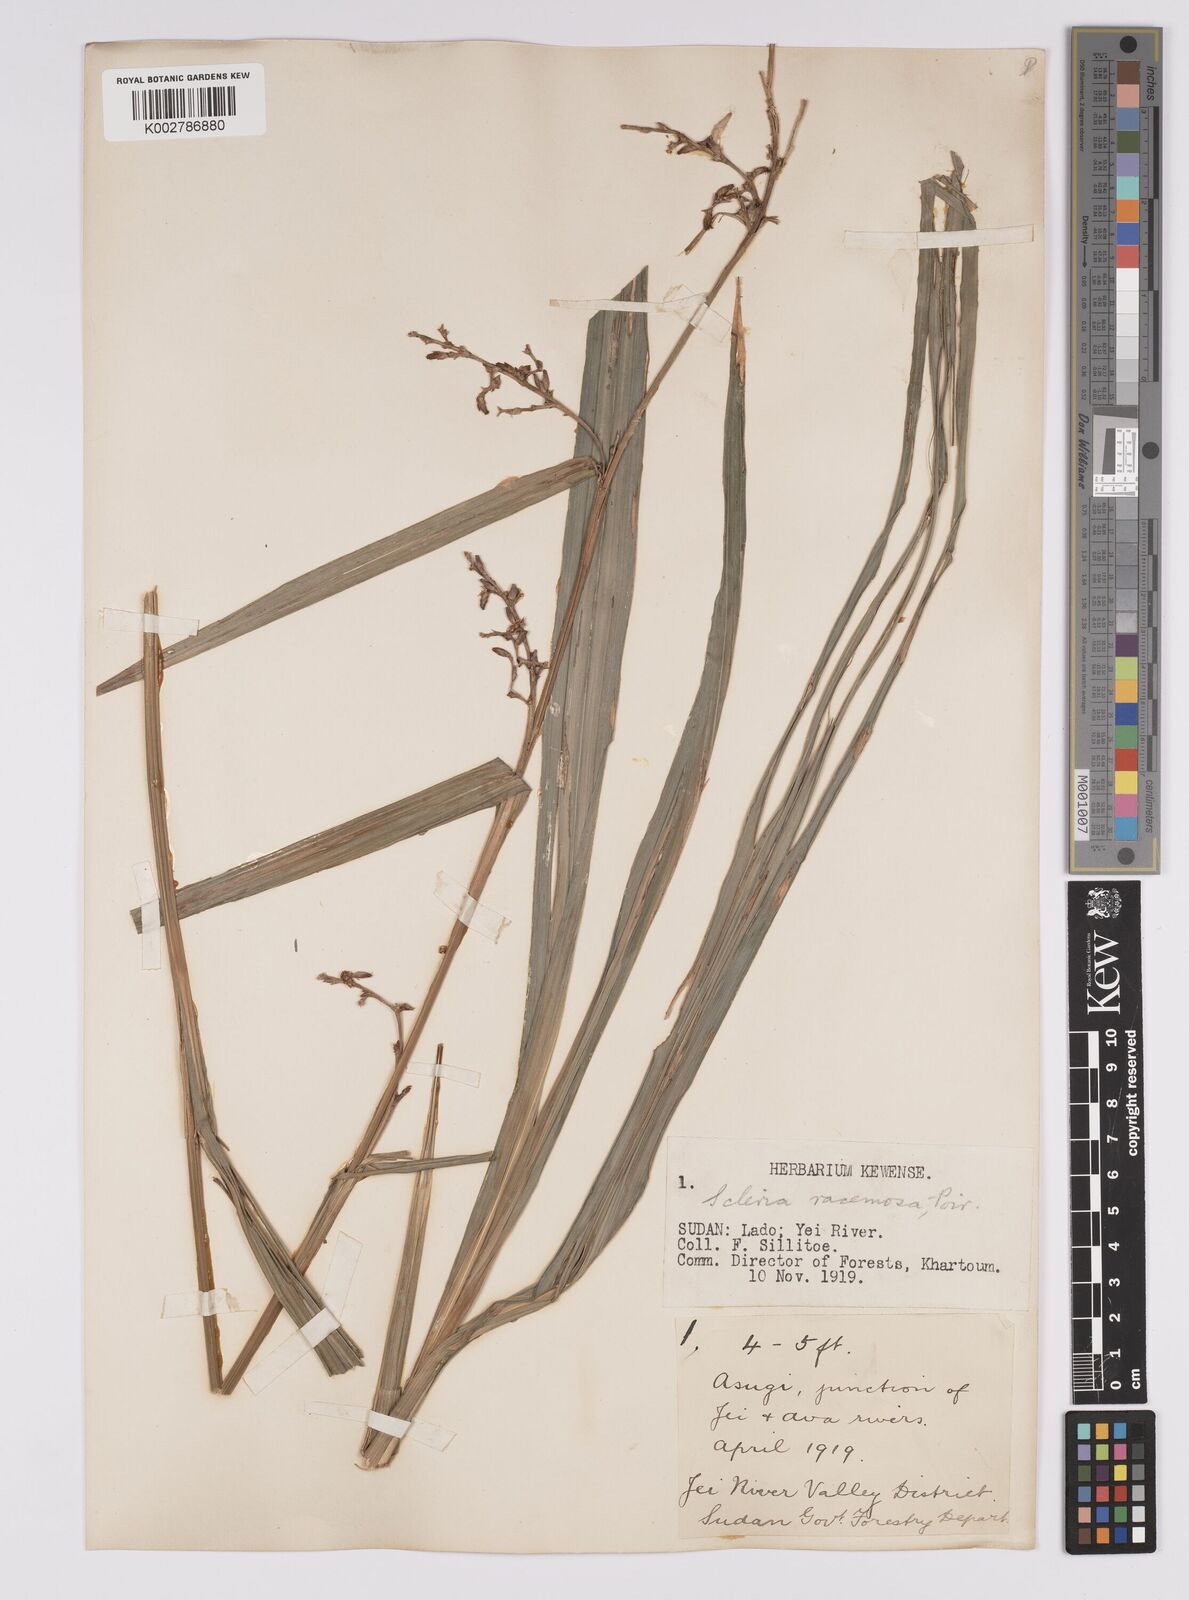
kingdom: Plantae
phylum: Tracheophyta
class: Liliopsida
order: Poales
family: Cyperaceae
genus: Scleria
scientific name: Scleria racemosa
